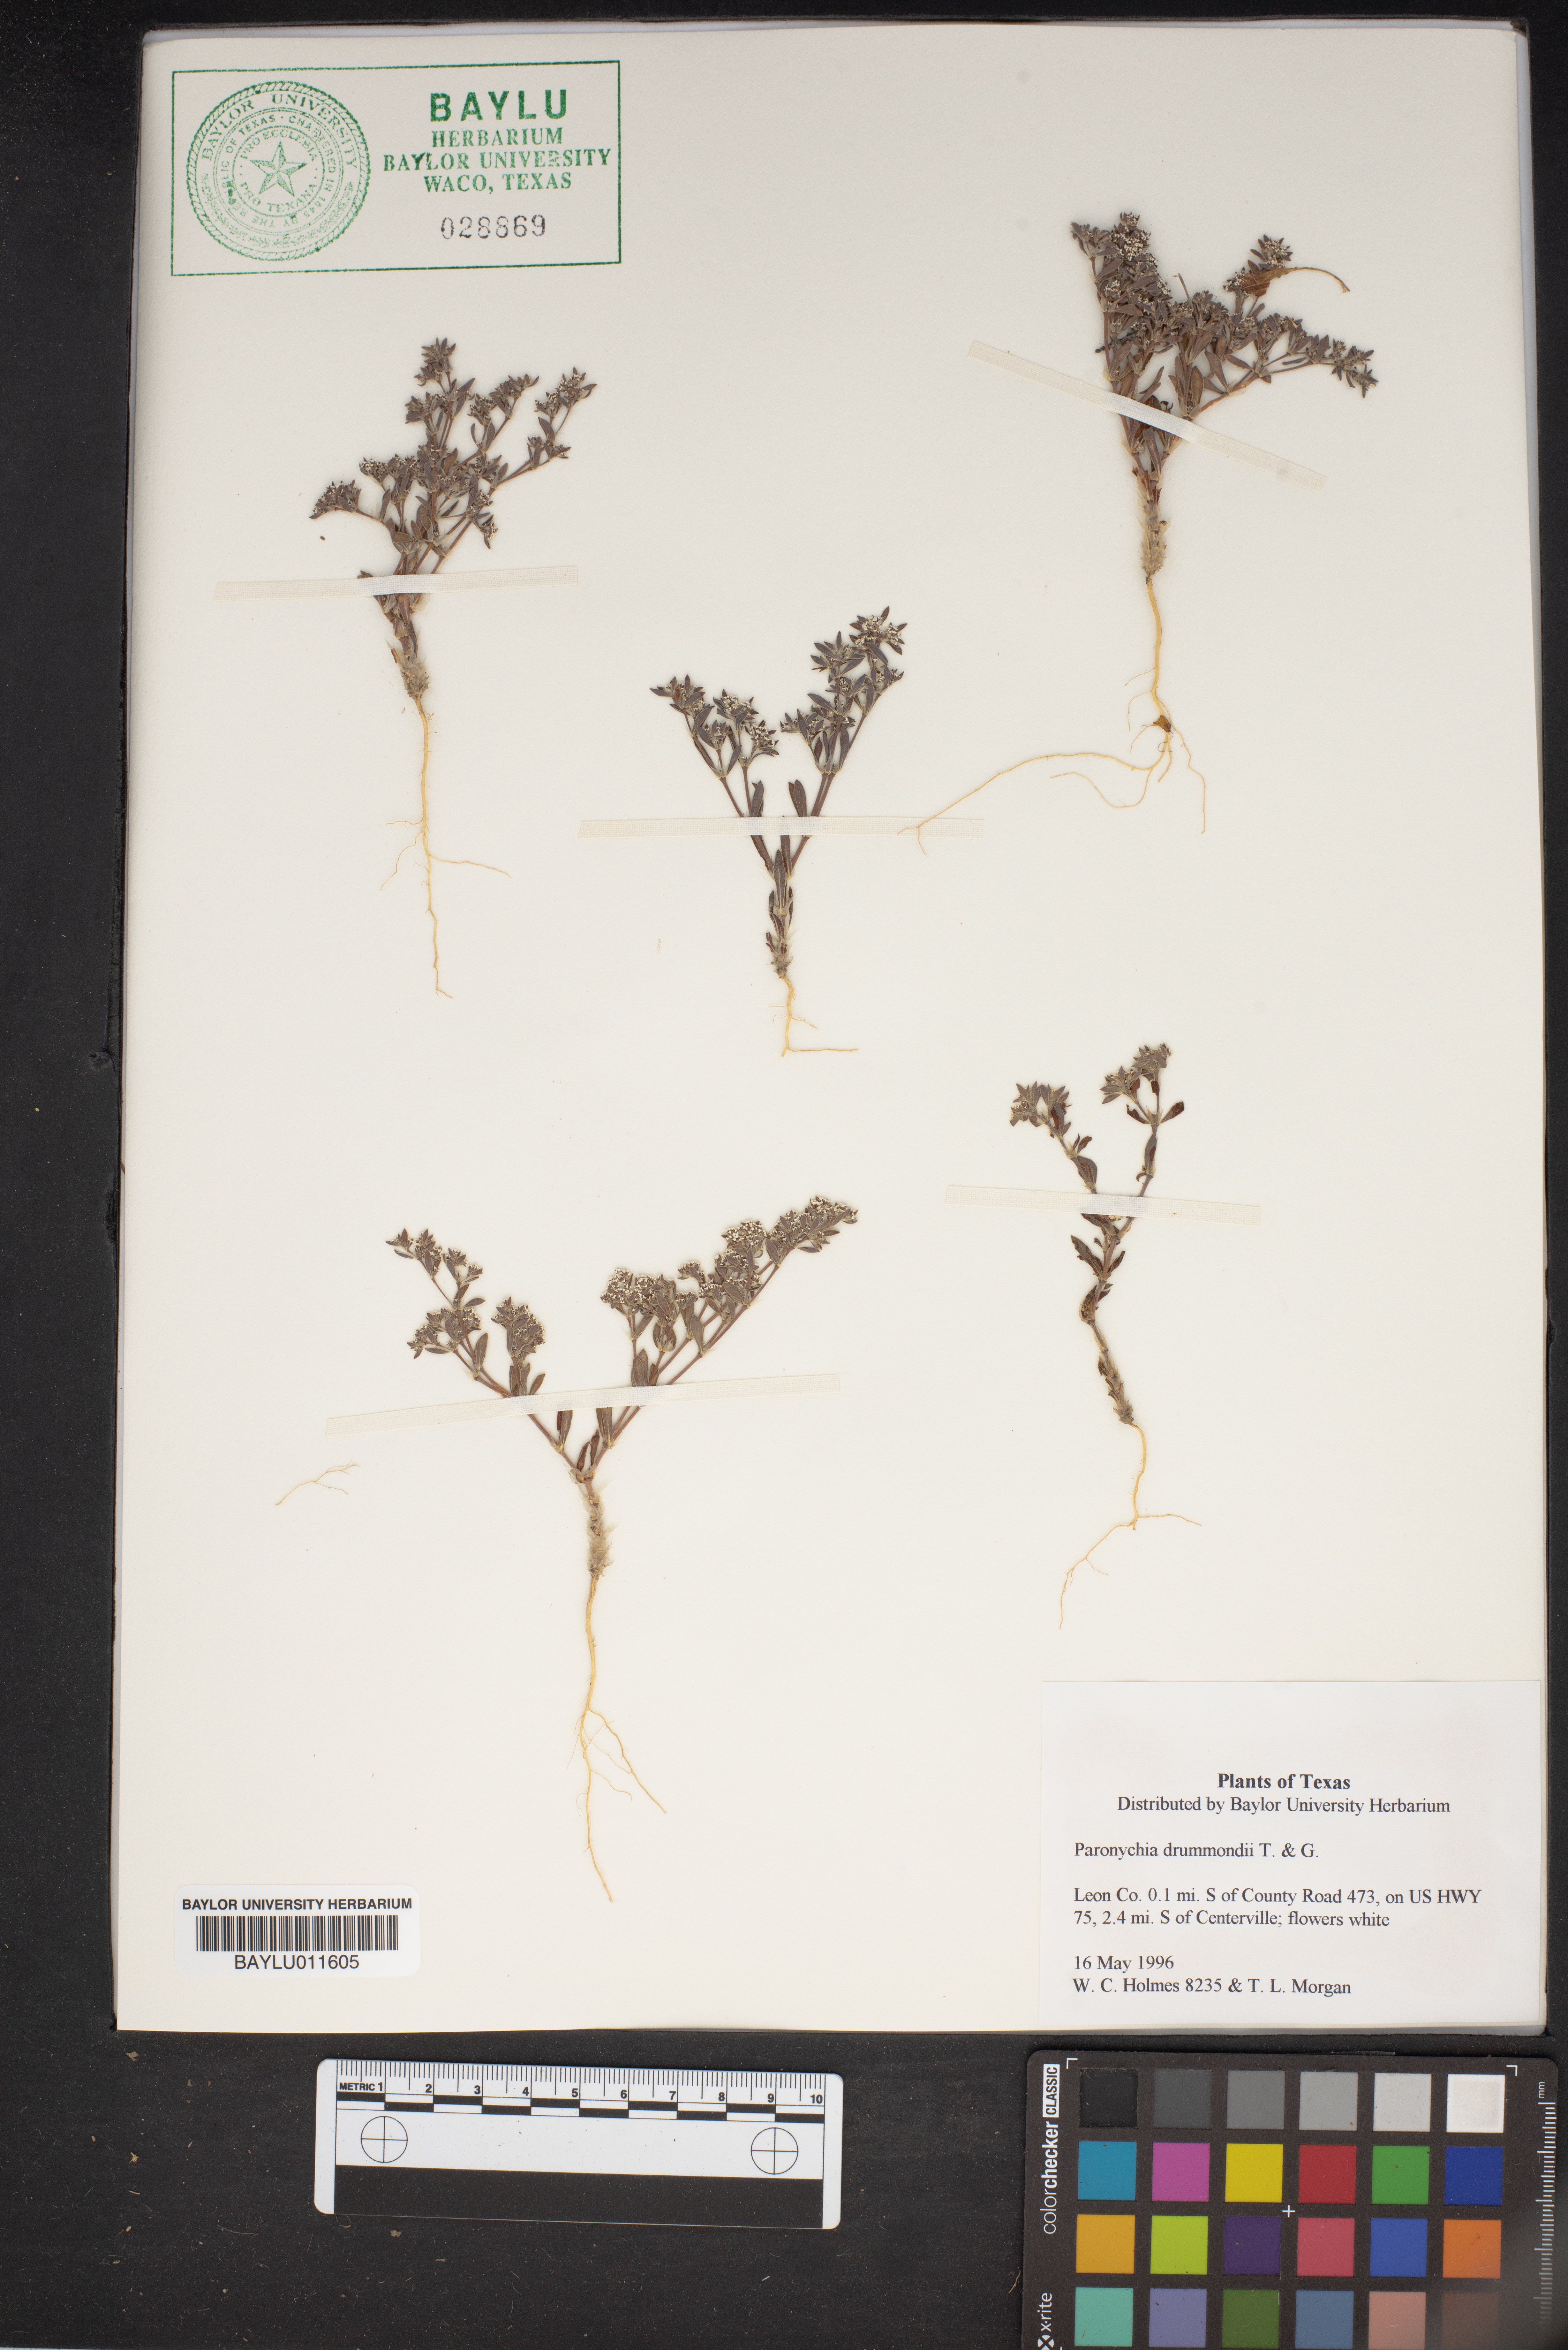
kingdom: Plantae
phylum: Tracheophyta
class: Magnoliopsida
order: Caryophyllales
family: Caryophyllaceae
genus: Paronychia
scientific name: Paronychia drummondii
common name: Drummond's nailwort
